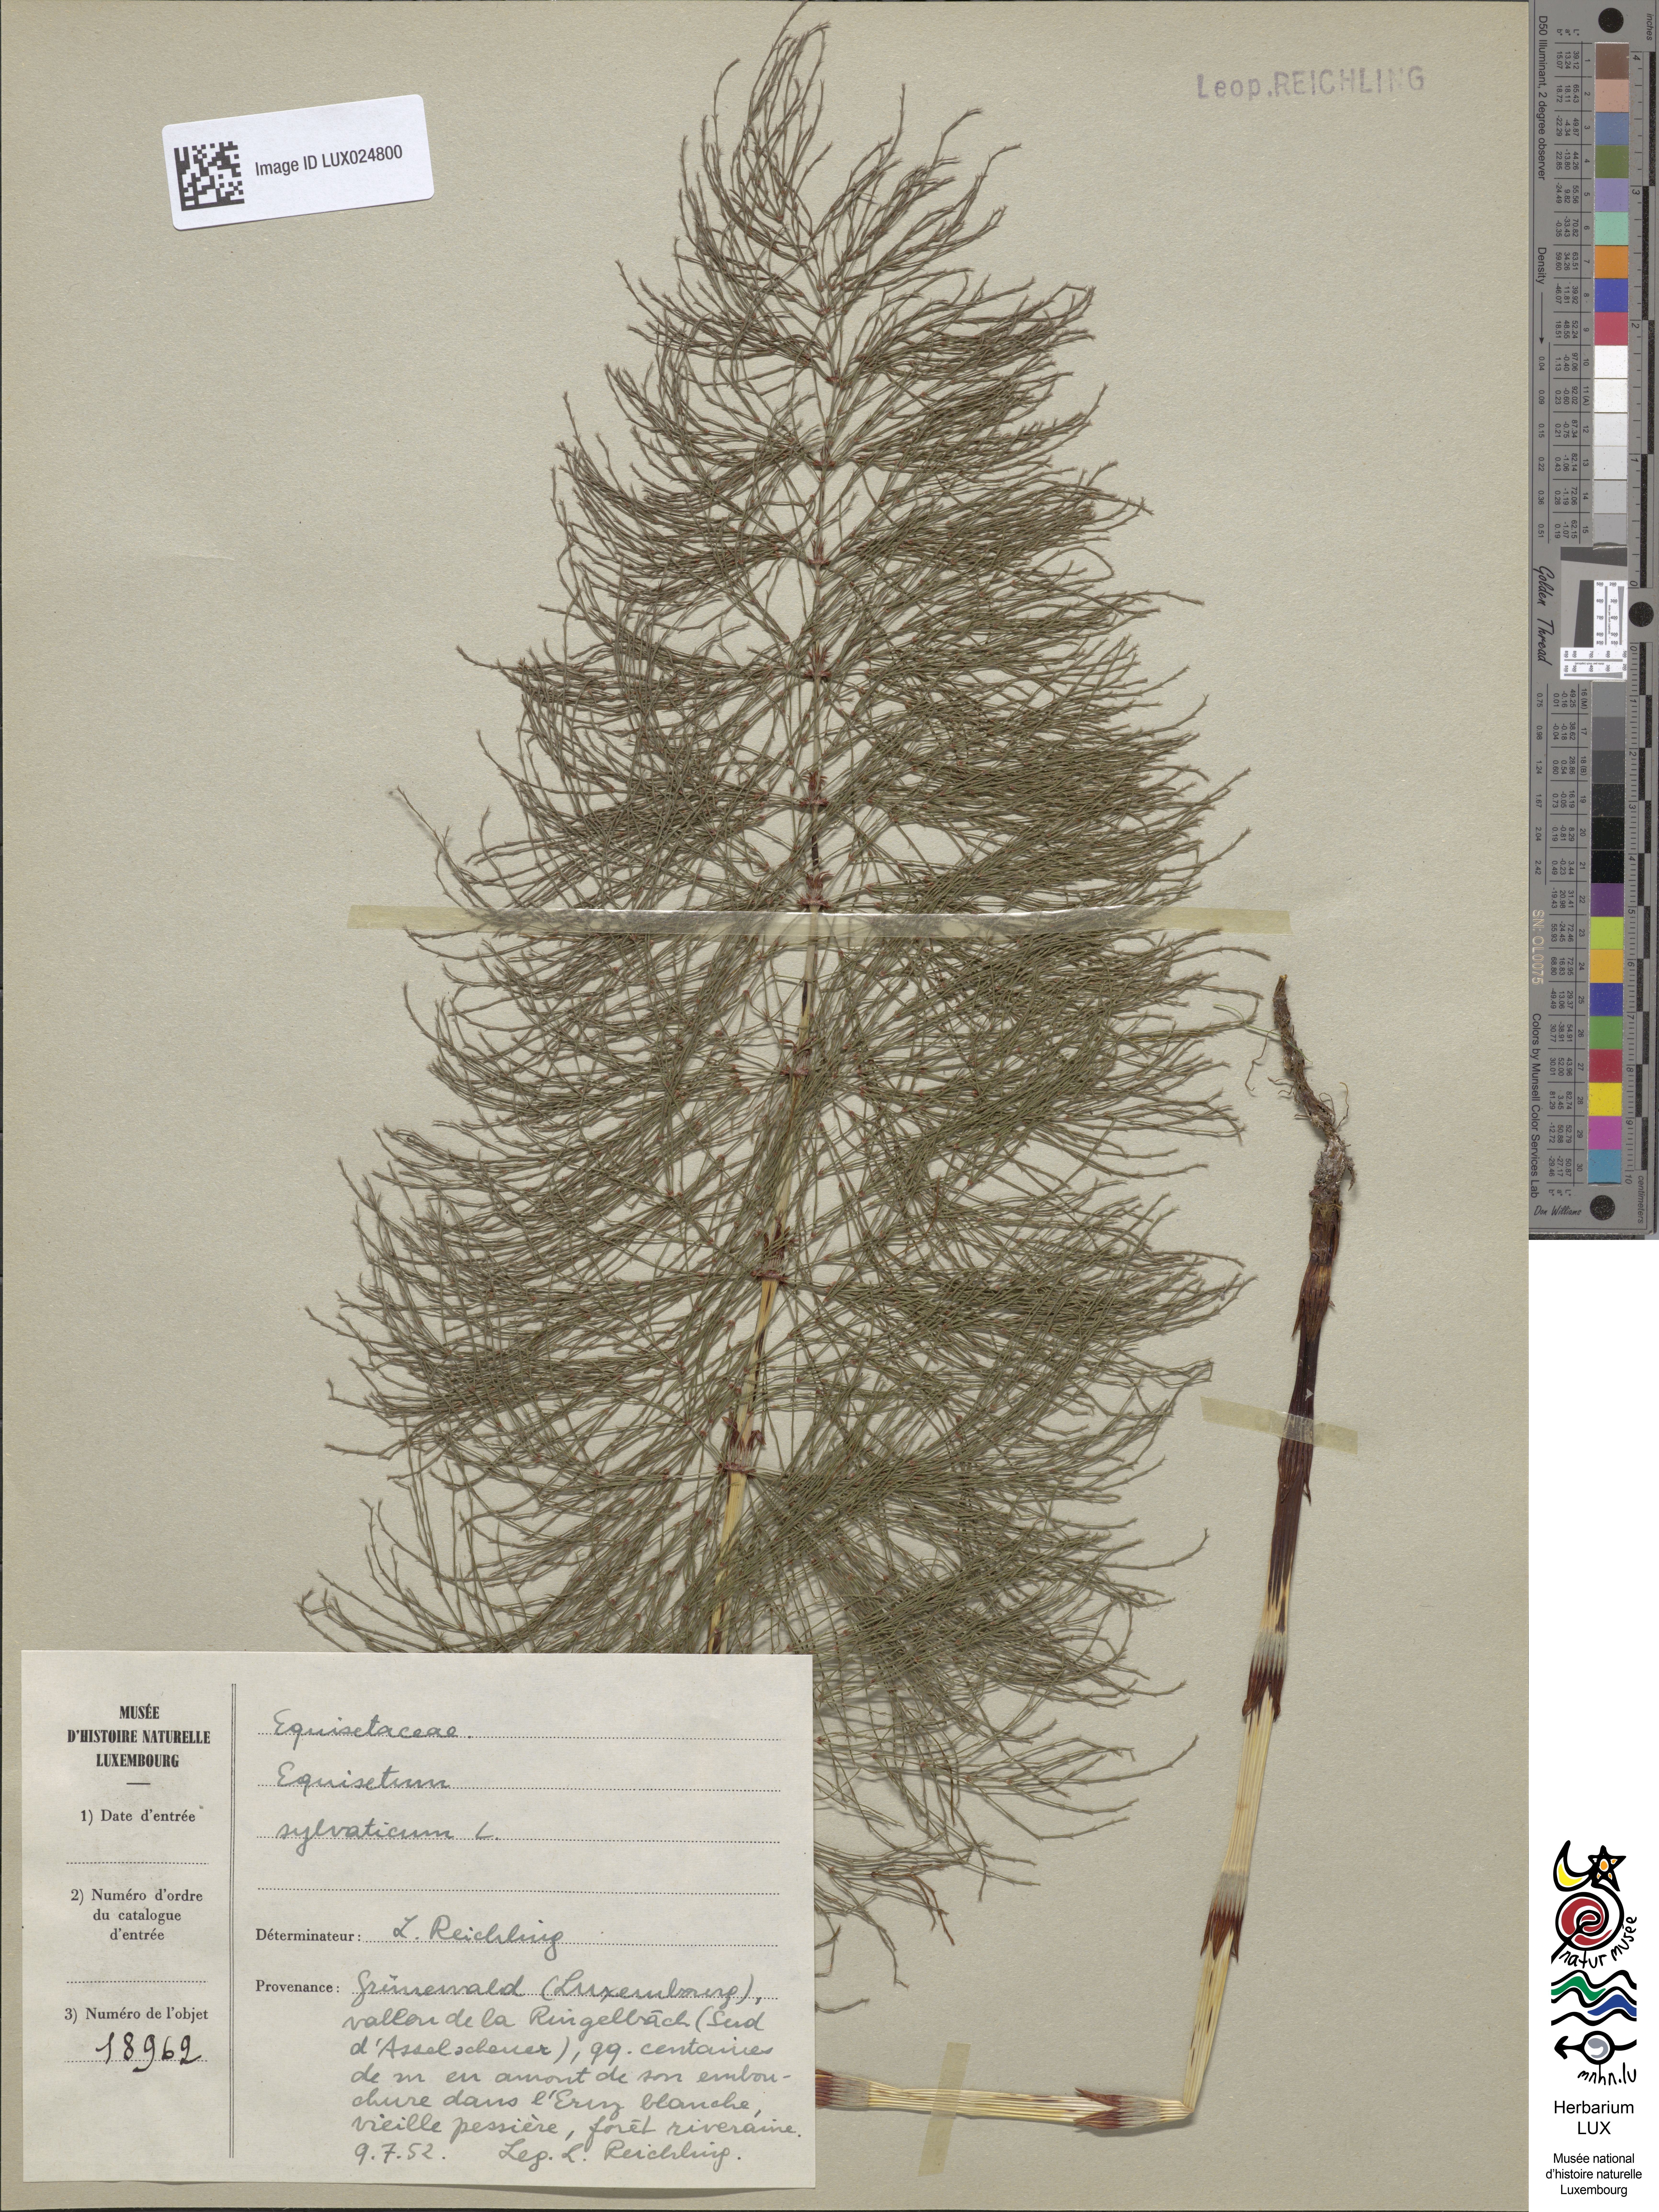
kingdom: Plantae
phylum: Tracheophyta
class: Polypodiopsida
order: Equisetales
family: Equisetaceae
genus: Equisetum
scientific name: Equisetum sylvaticum
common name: Wood horsetail
